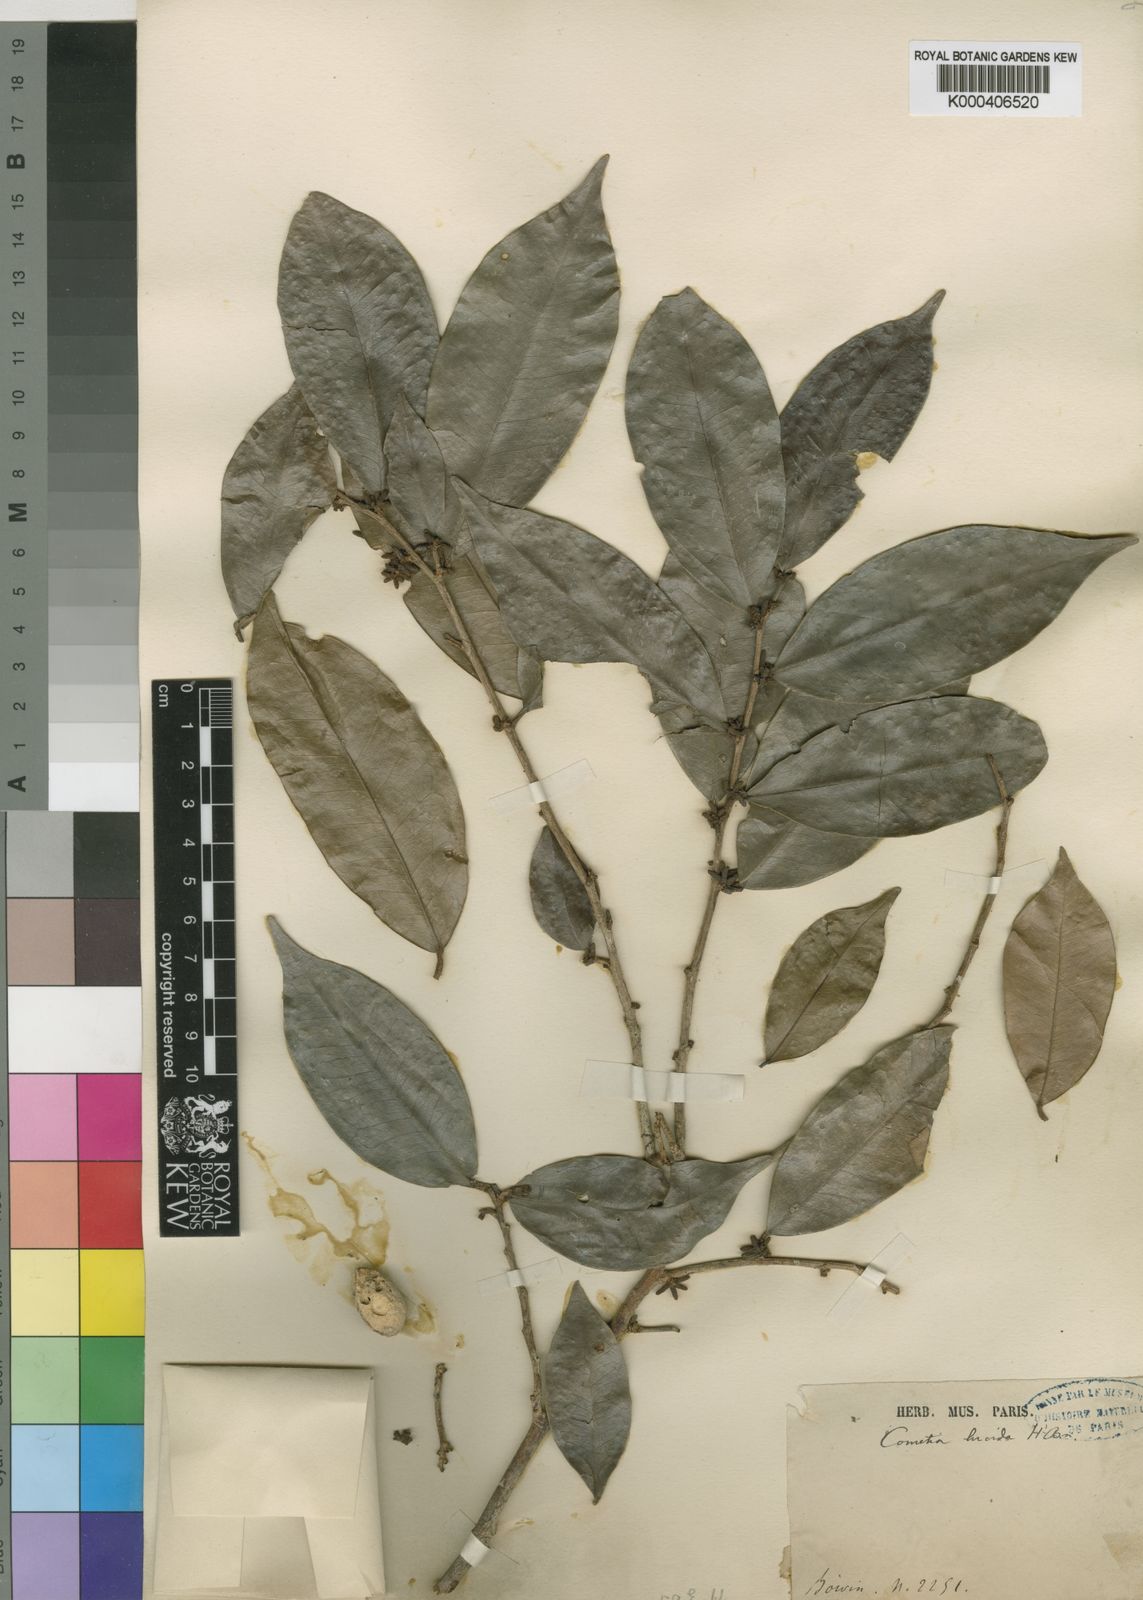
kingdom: Plantae
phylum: Tracheophyta
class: Magnoliopsida
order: Malpighiales
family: Phyllanthaceae
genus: Thecacoris
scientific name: Thecacoris cometia
